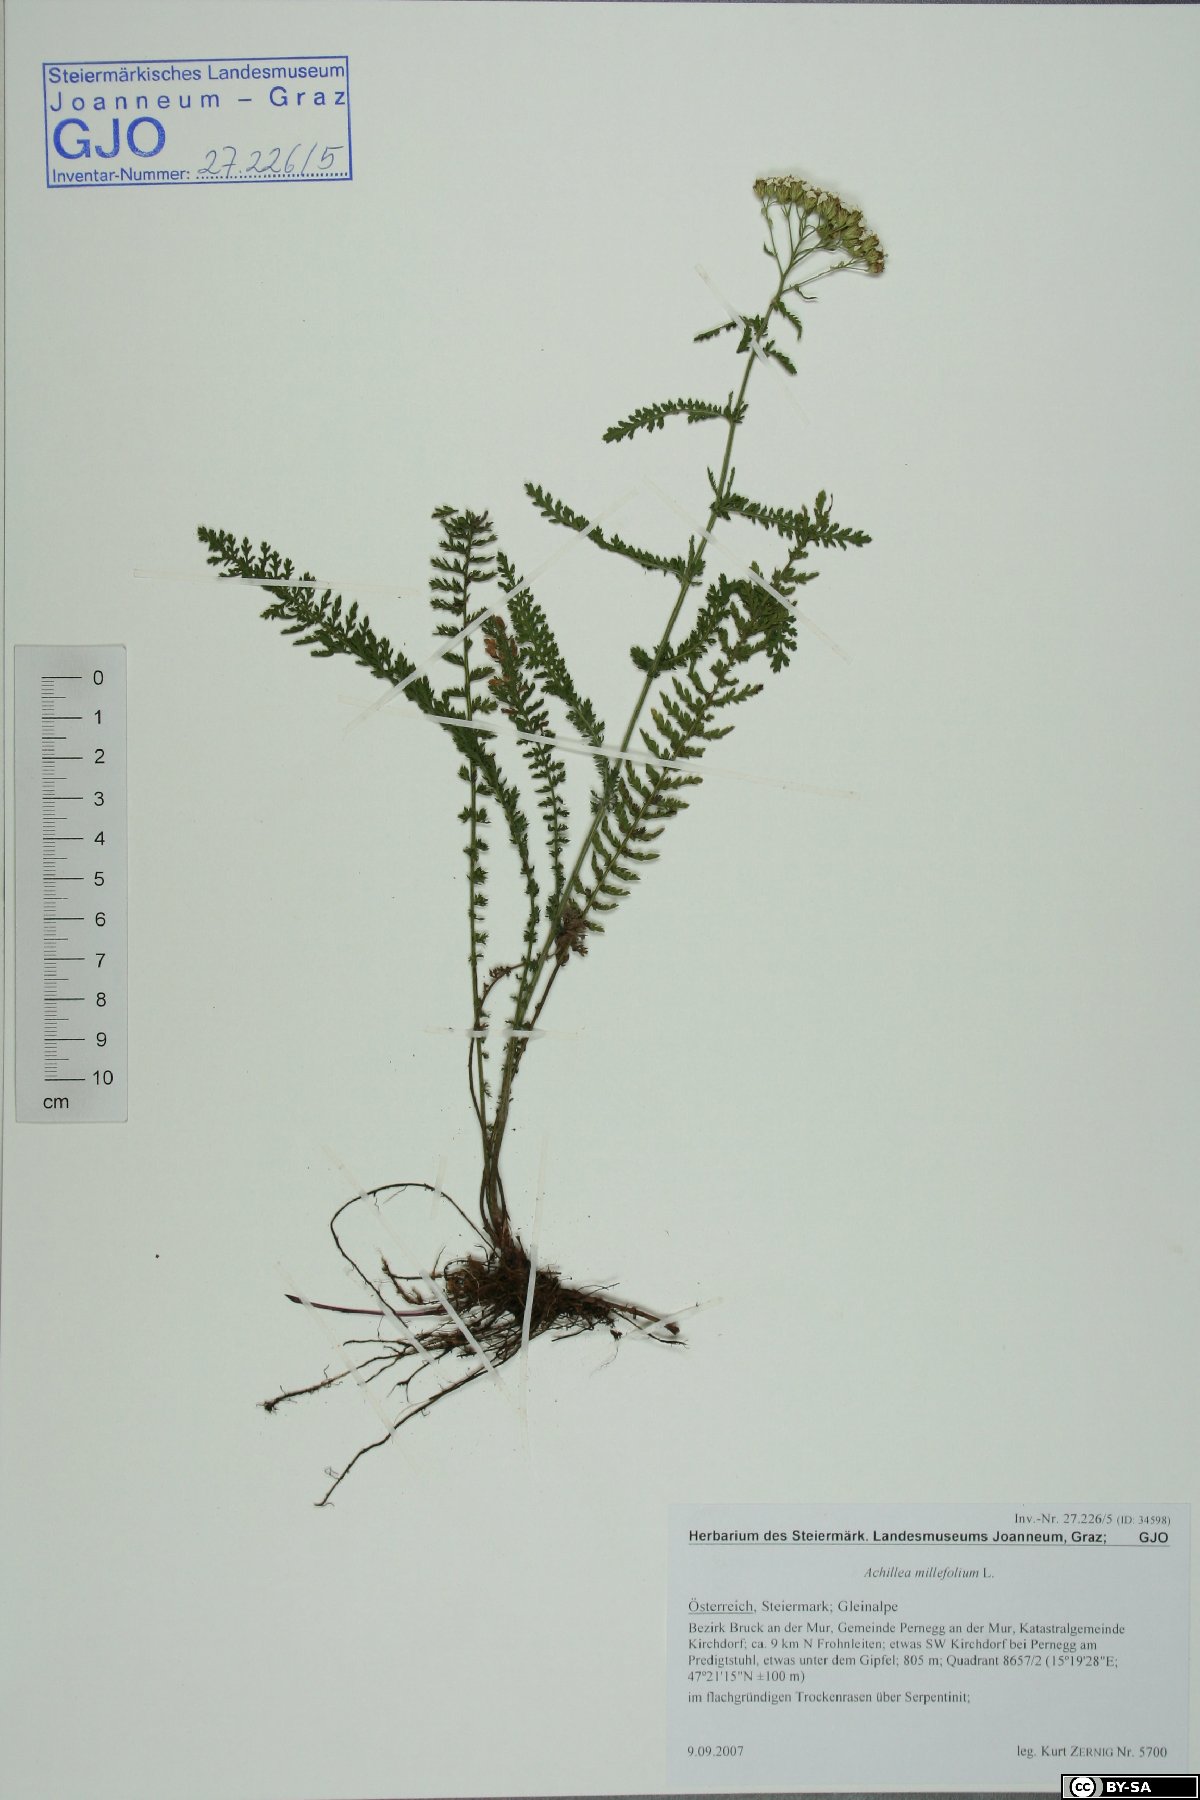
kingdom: Plantae
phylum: Tracheophyta
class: Magnoliopsida
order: Asterales
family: Asteraceae
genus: Achillea
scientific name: Achillea millefolium
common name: Yarrow
